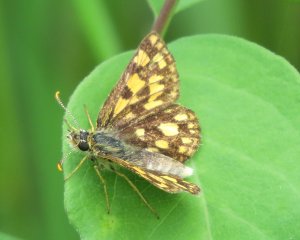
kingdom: Animalia
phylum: Arthropoda
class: Insecta
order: Lepidoptera
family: Hesperiidae
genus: Carterocephalus
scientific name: Carterocephalus palaemon
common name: Chequered Skipper
